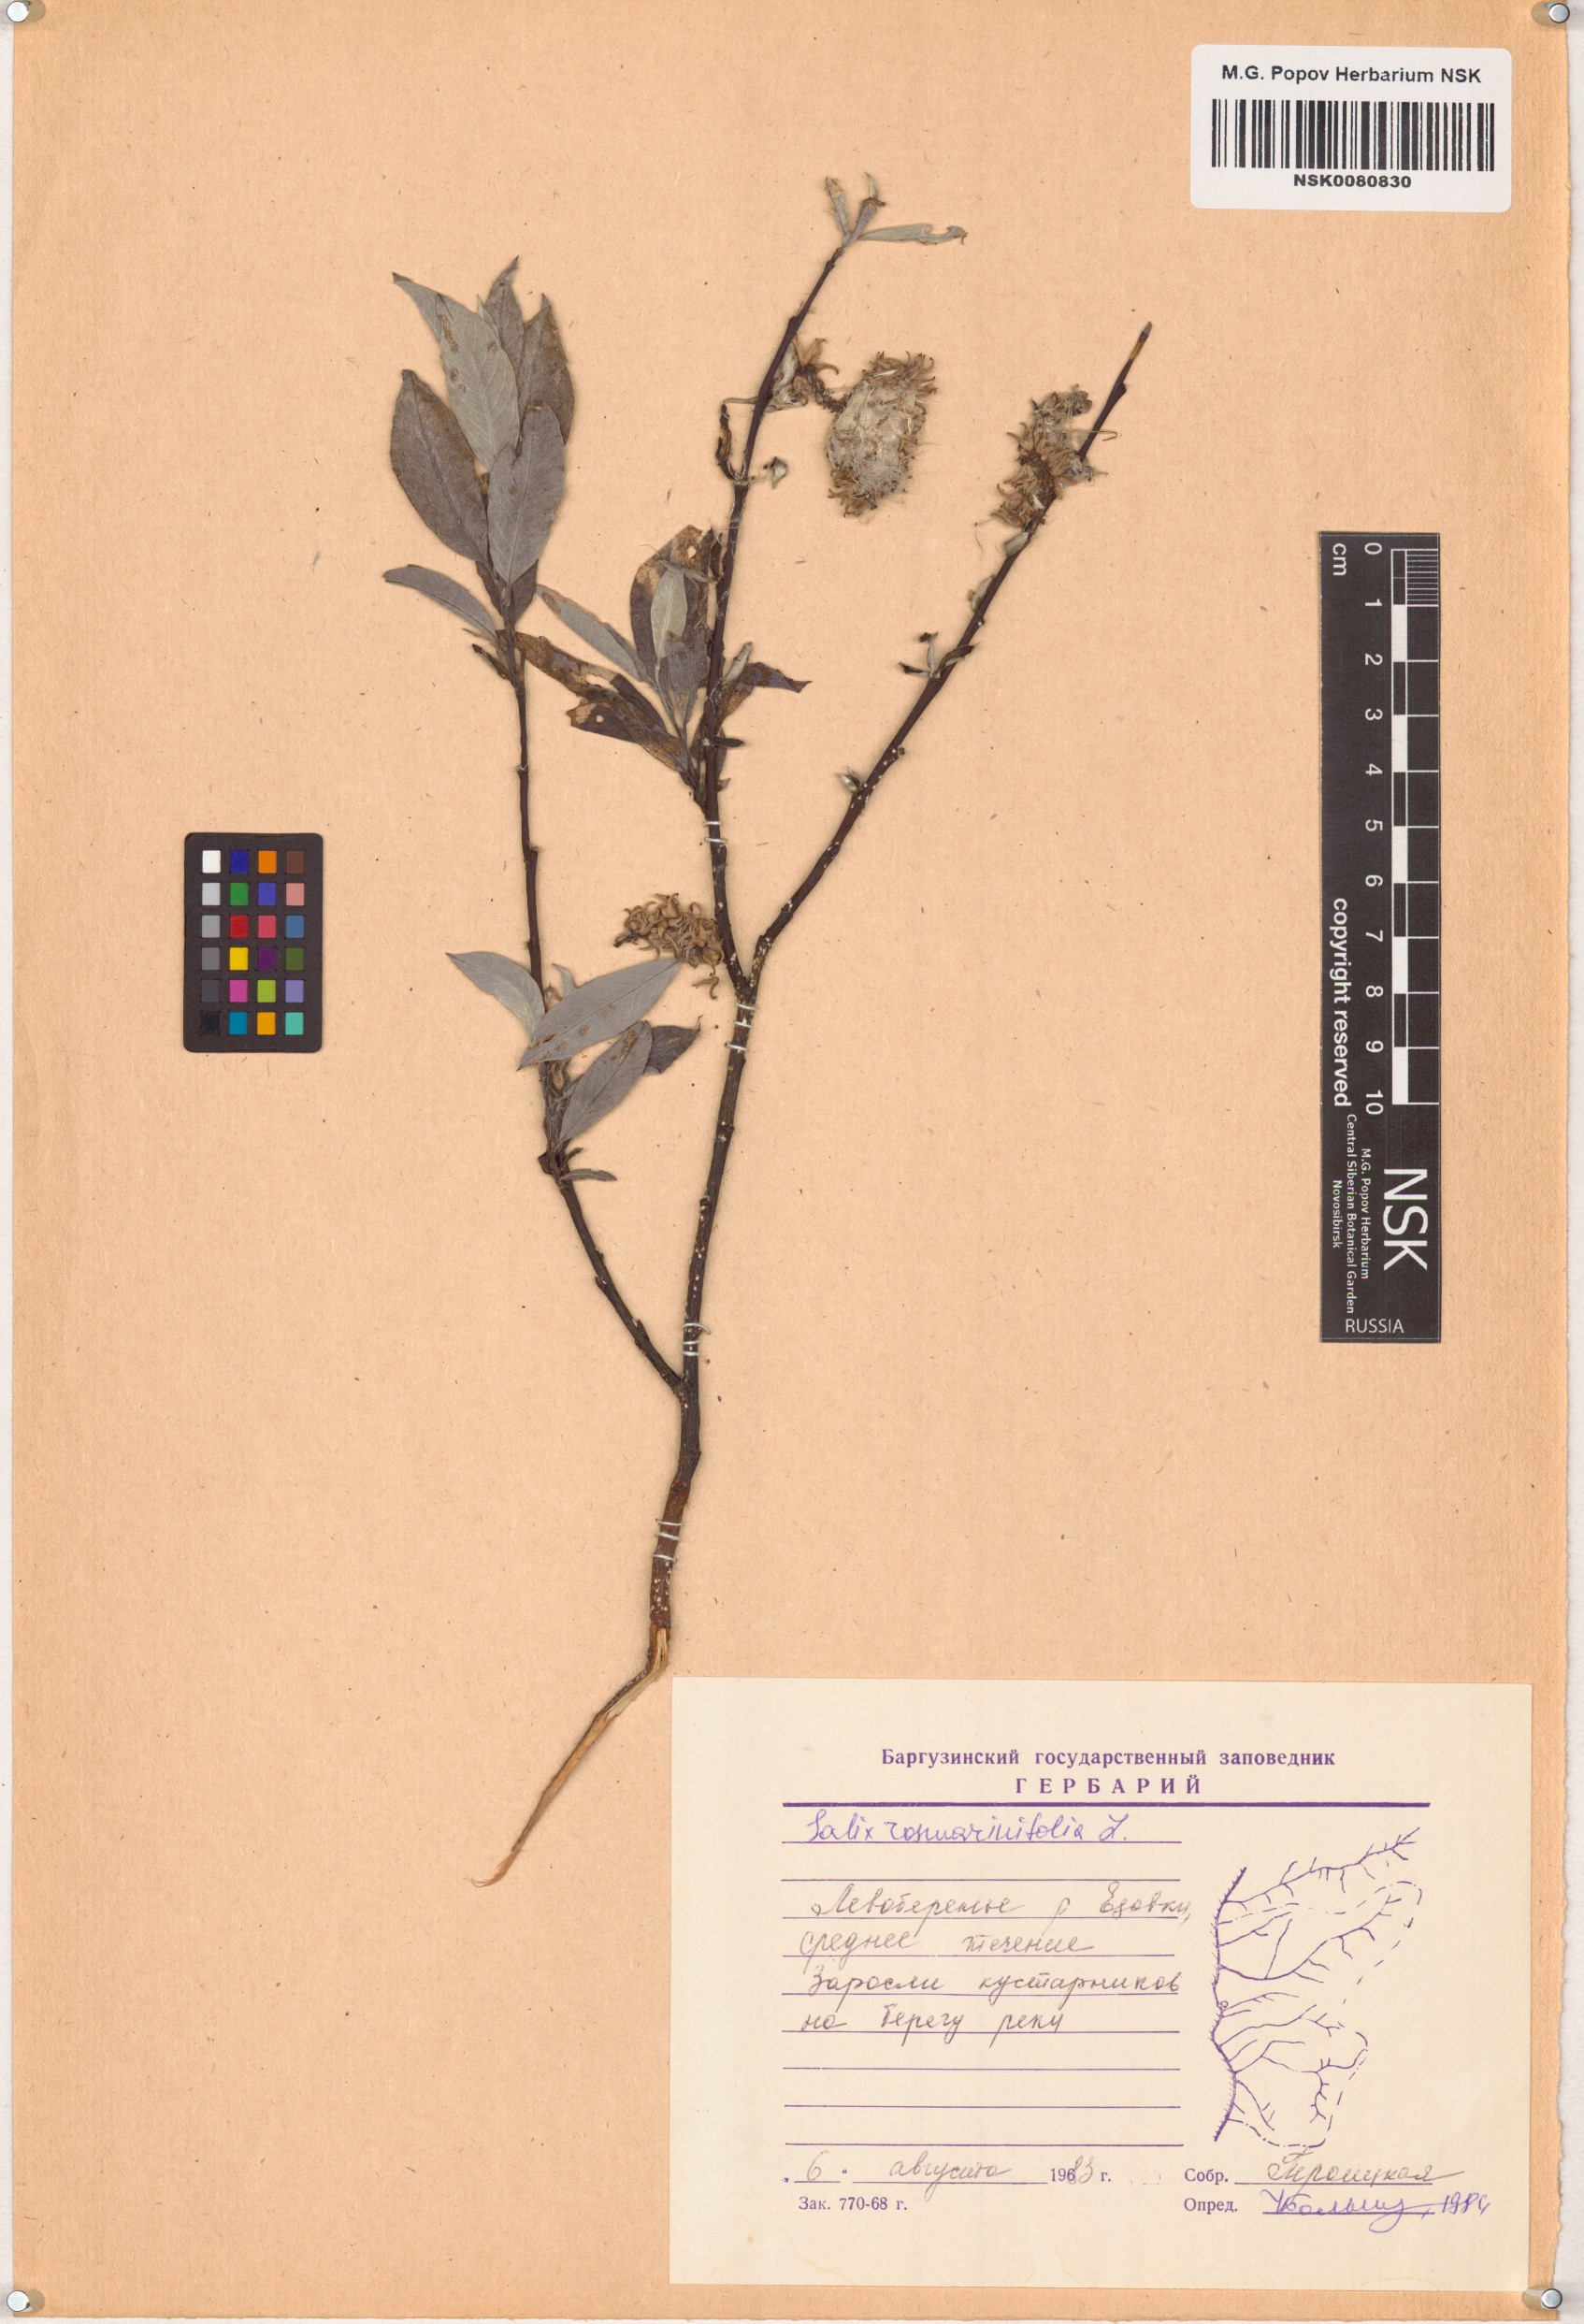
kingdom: Plantae
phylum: Tracheophyta
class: Magnoliopsida
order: Malpighiales
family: Salicaceae
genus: Salix
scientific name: Salix rosmarinifolia
